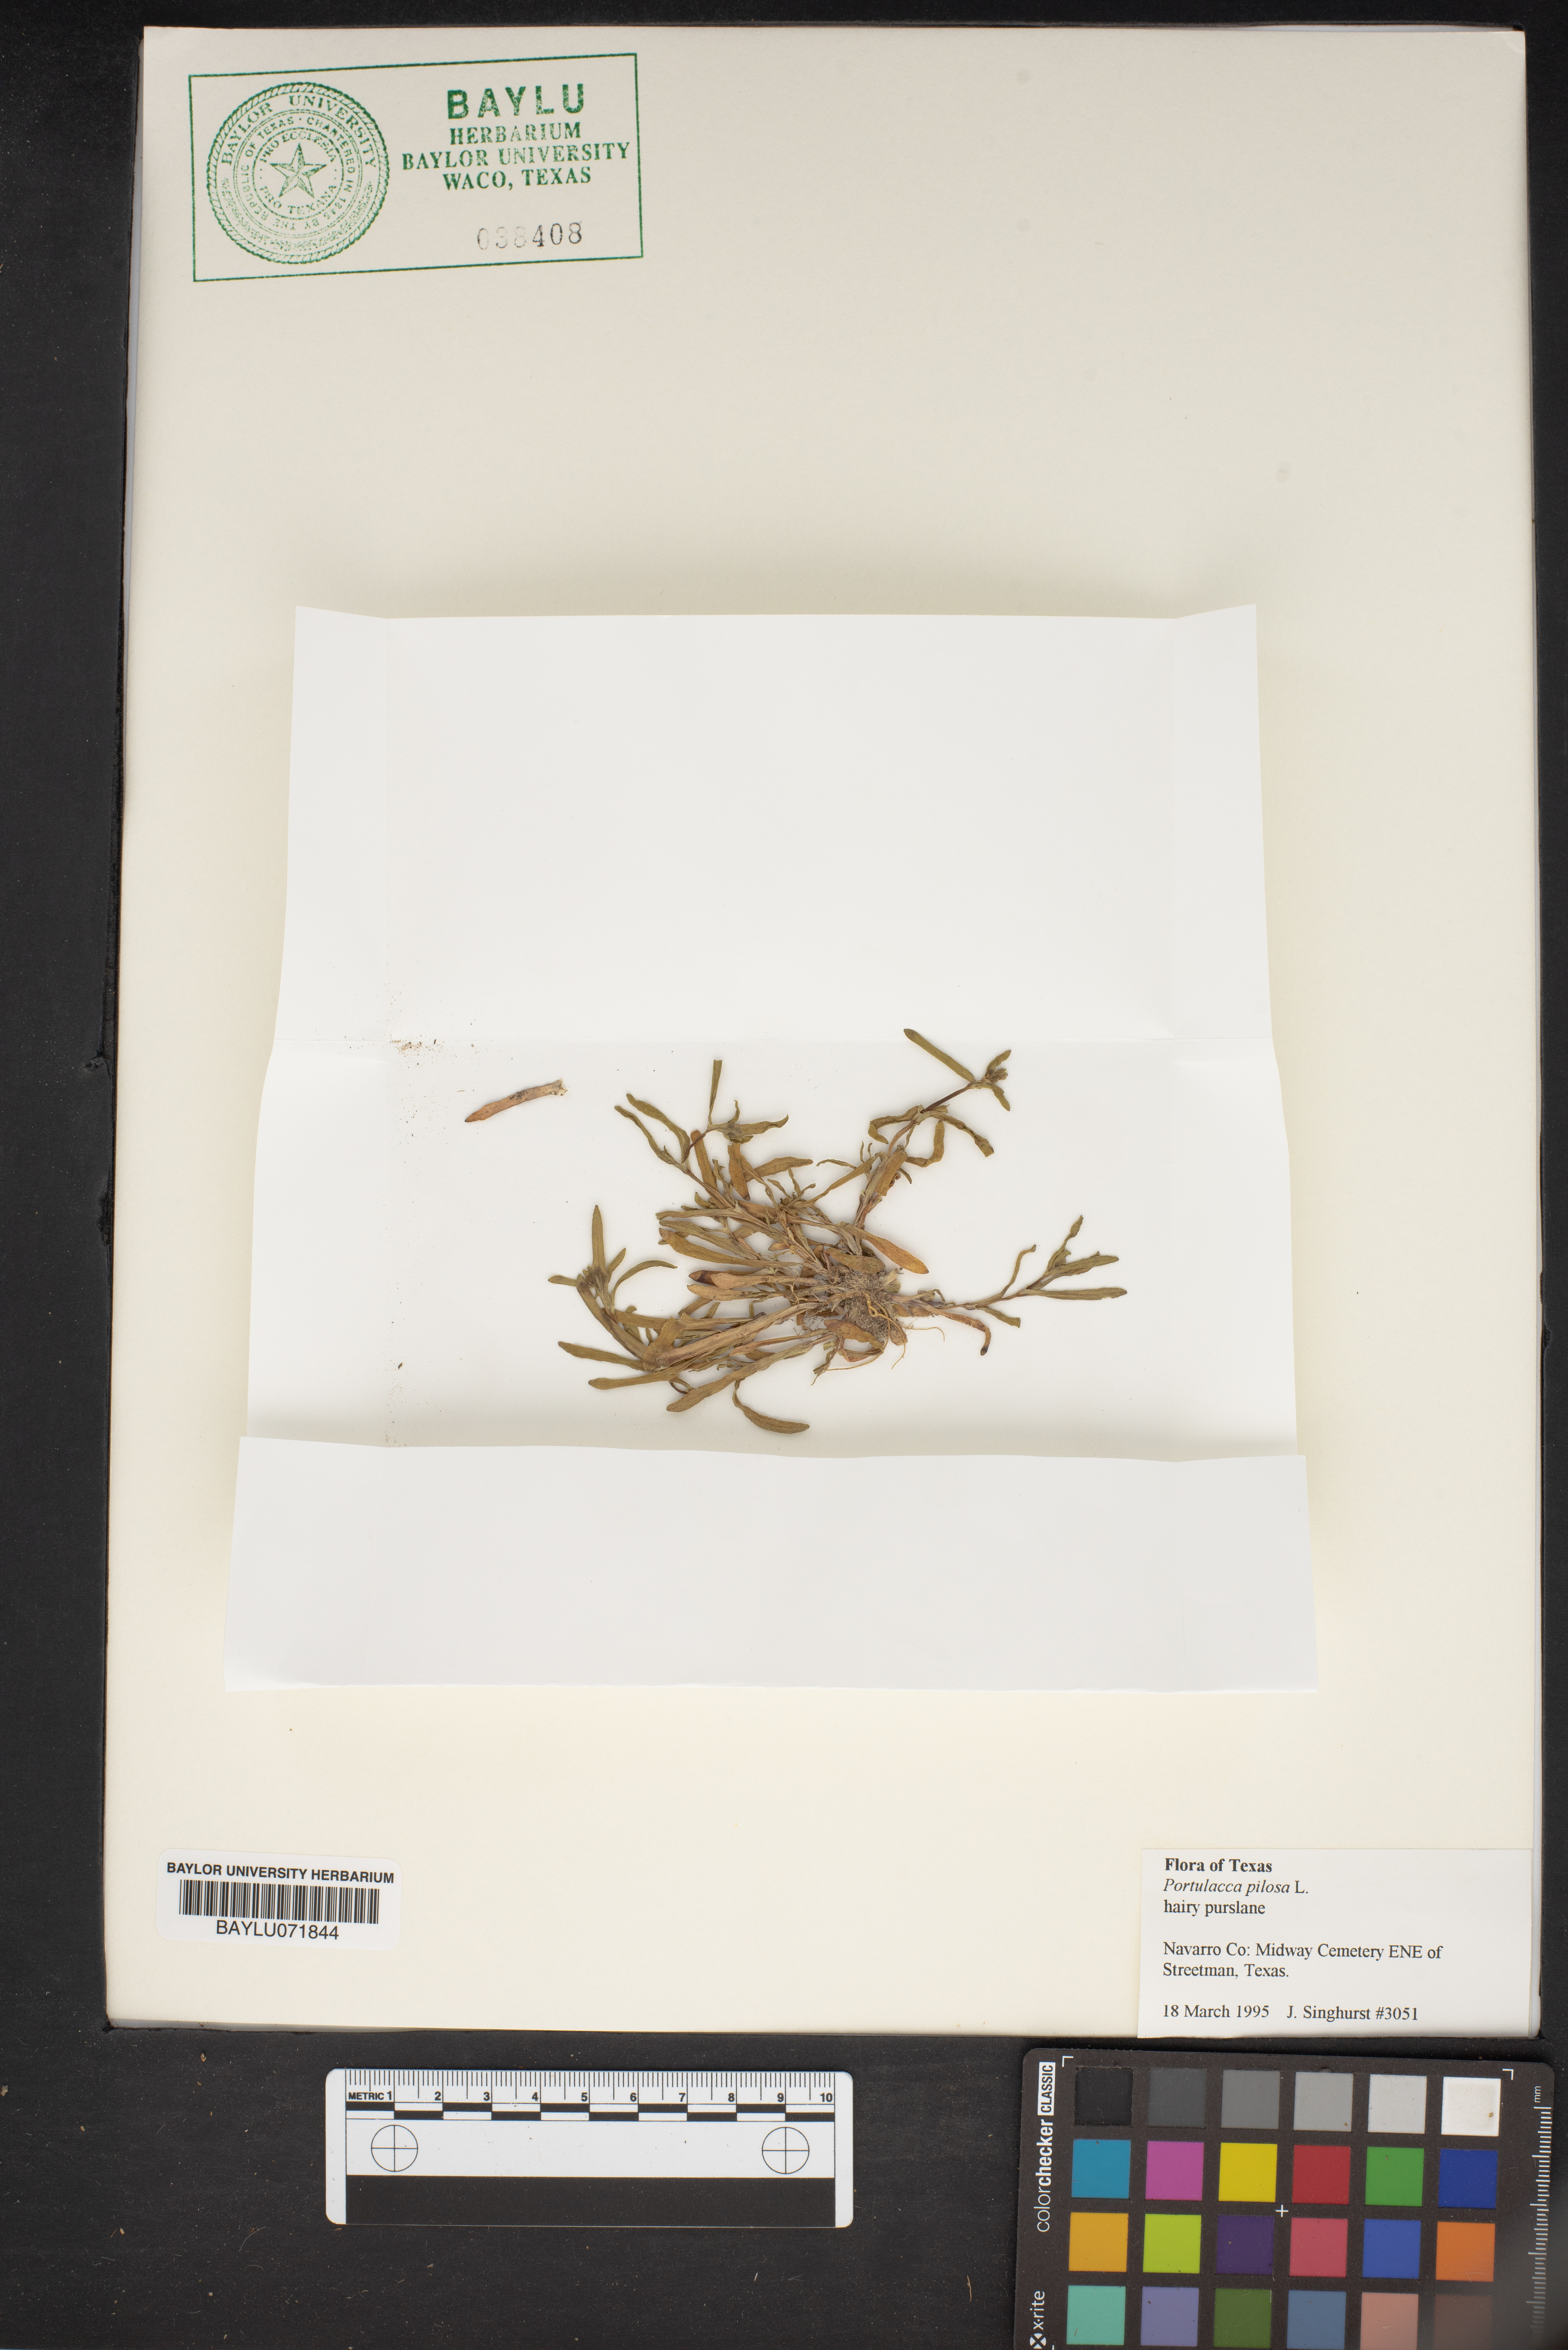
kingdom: Plantae
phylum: Tracheophyta
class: Magnoliopsida
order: Caryophyllales
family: Portulacaceae
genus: Portulaca
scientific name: Portulaca pilosa
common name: Kiss me quick
